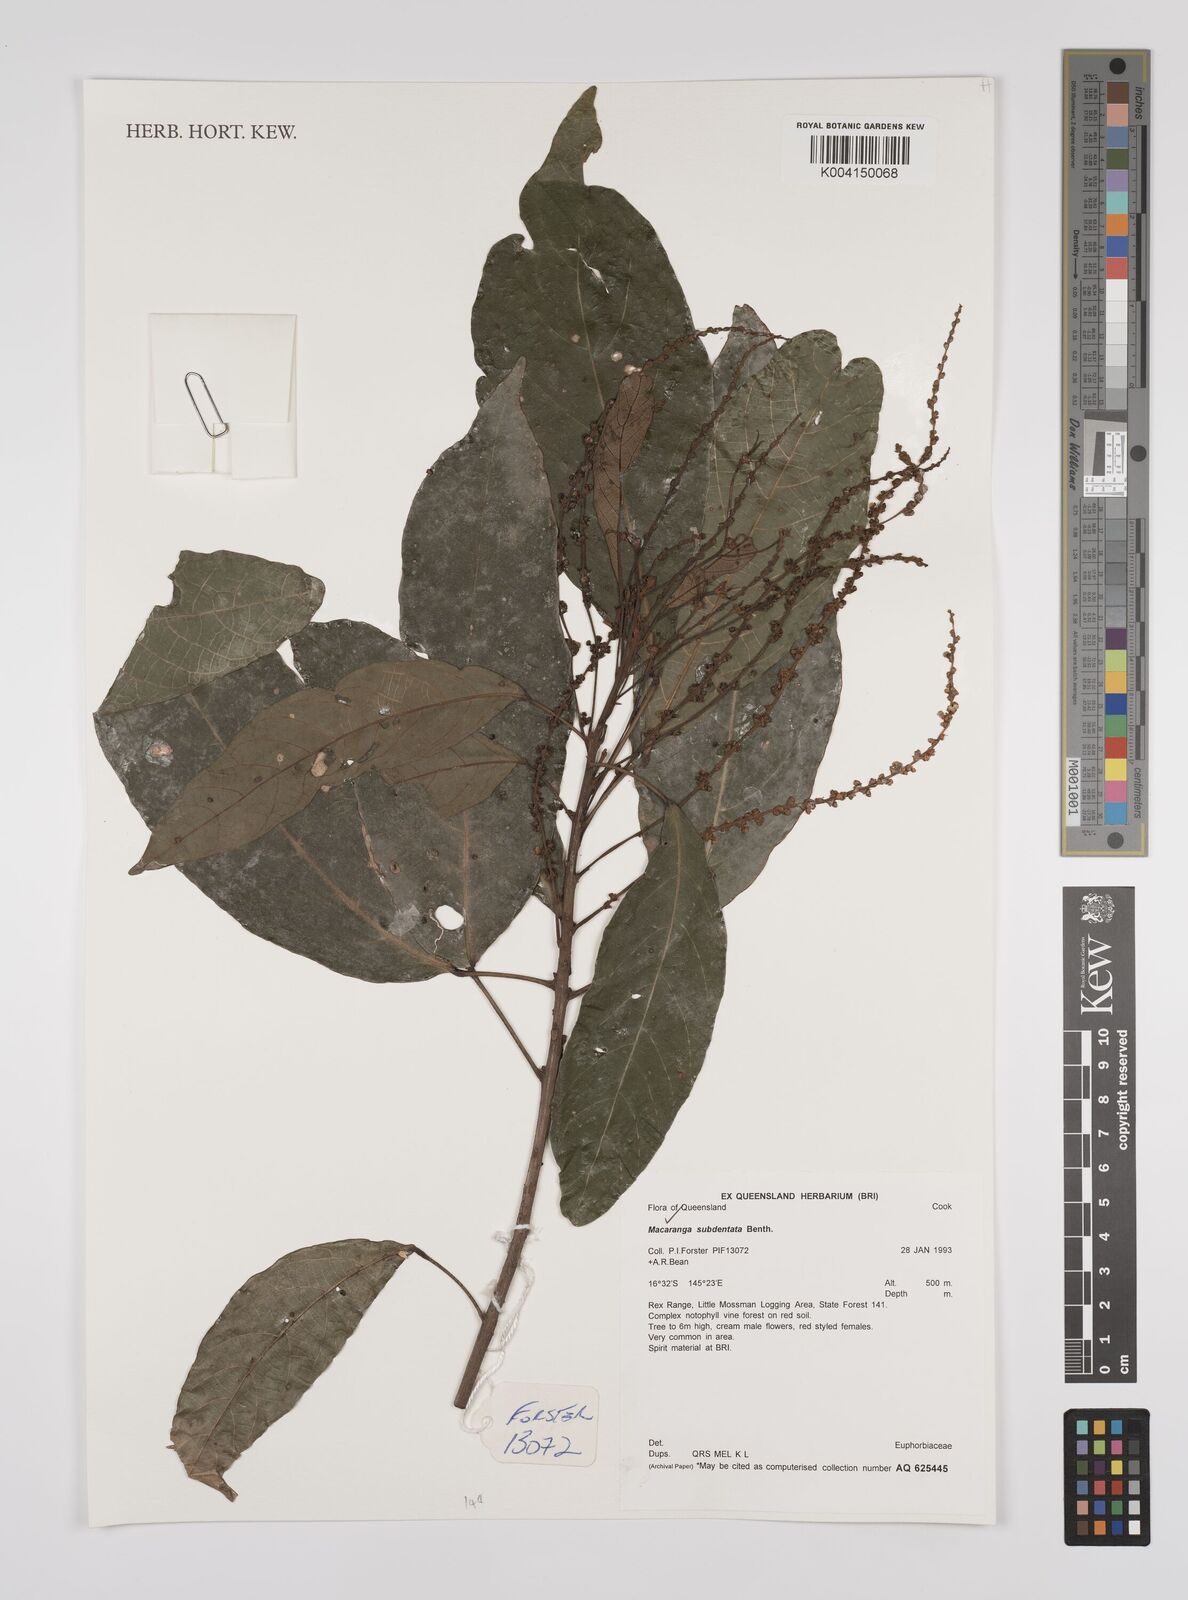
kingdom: Plantae
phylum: Tracheophyta
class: Magnoliopsida
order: Malpighiales
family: Euphorbiaceae
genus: Macaranga
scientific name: Macaranga subdentata
